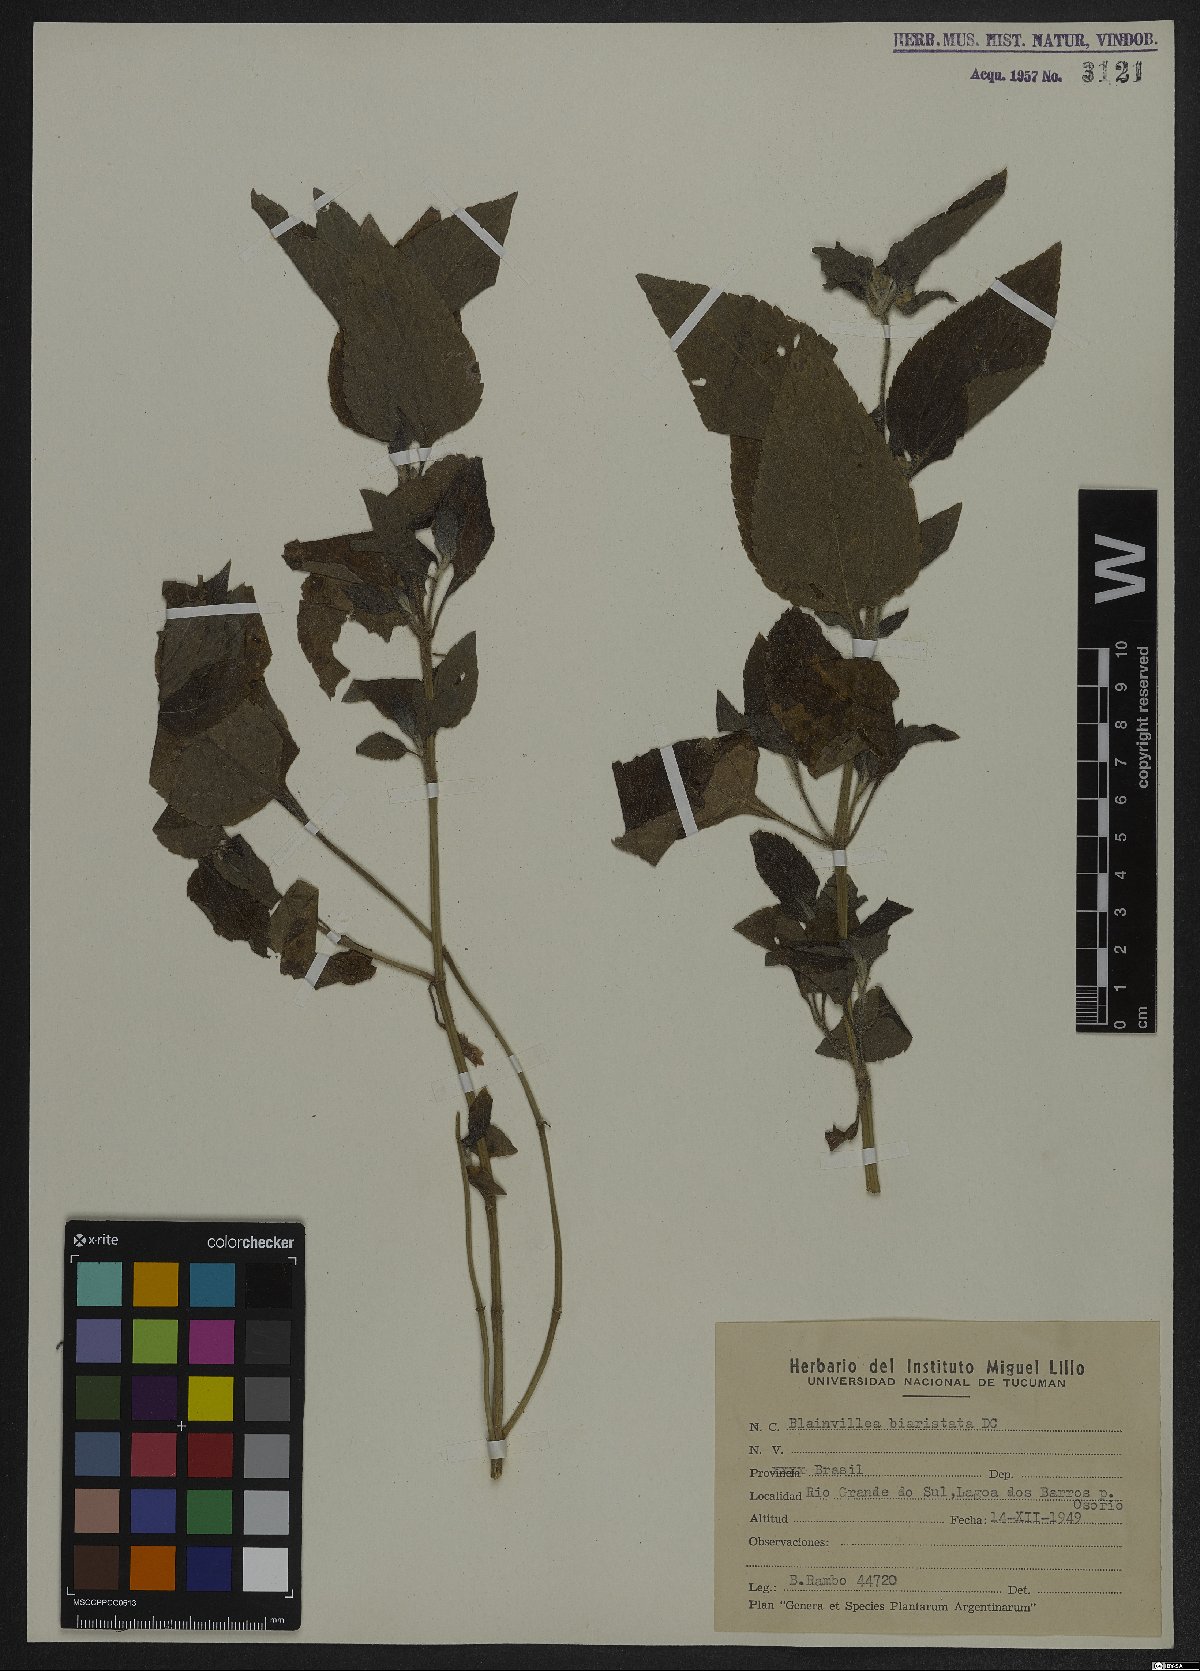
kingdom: Plantae
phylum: Tracheophyta
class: Magnoliopsida
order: Asterales
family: Asteraceae
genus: Calyptocarpus
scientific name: Calyptocarpus brasiliensis
